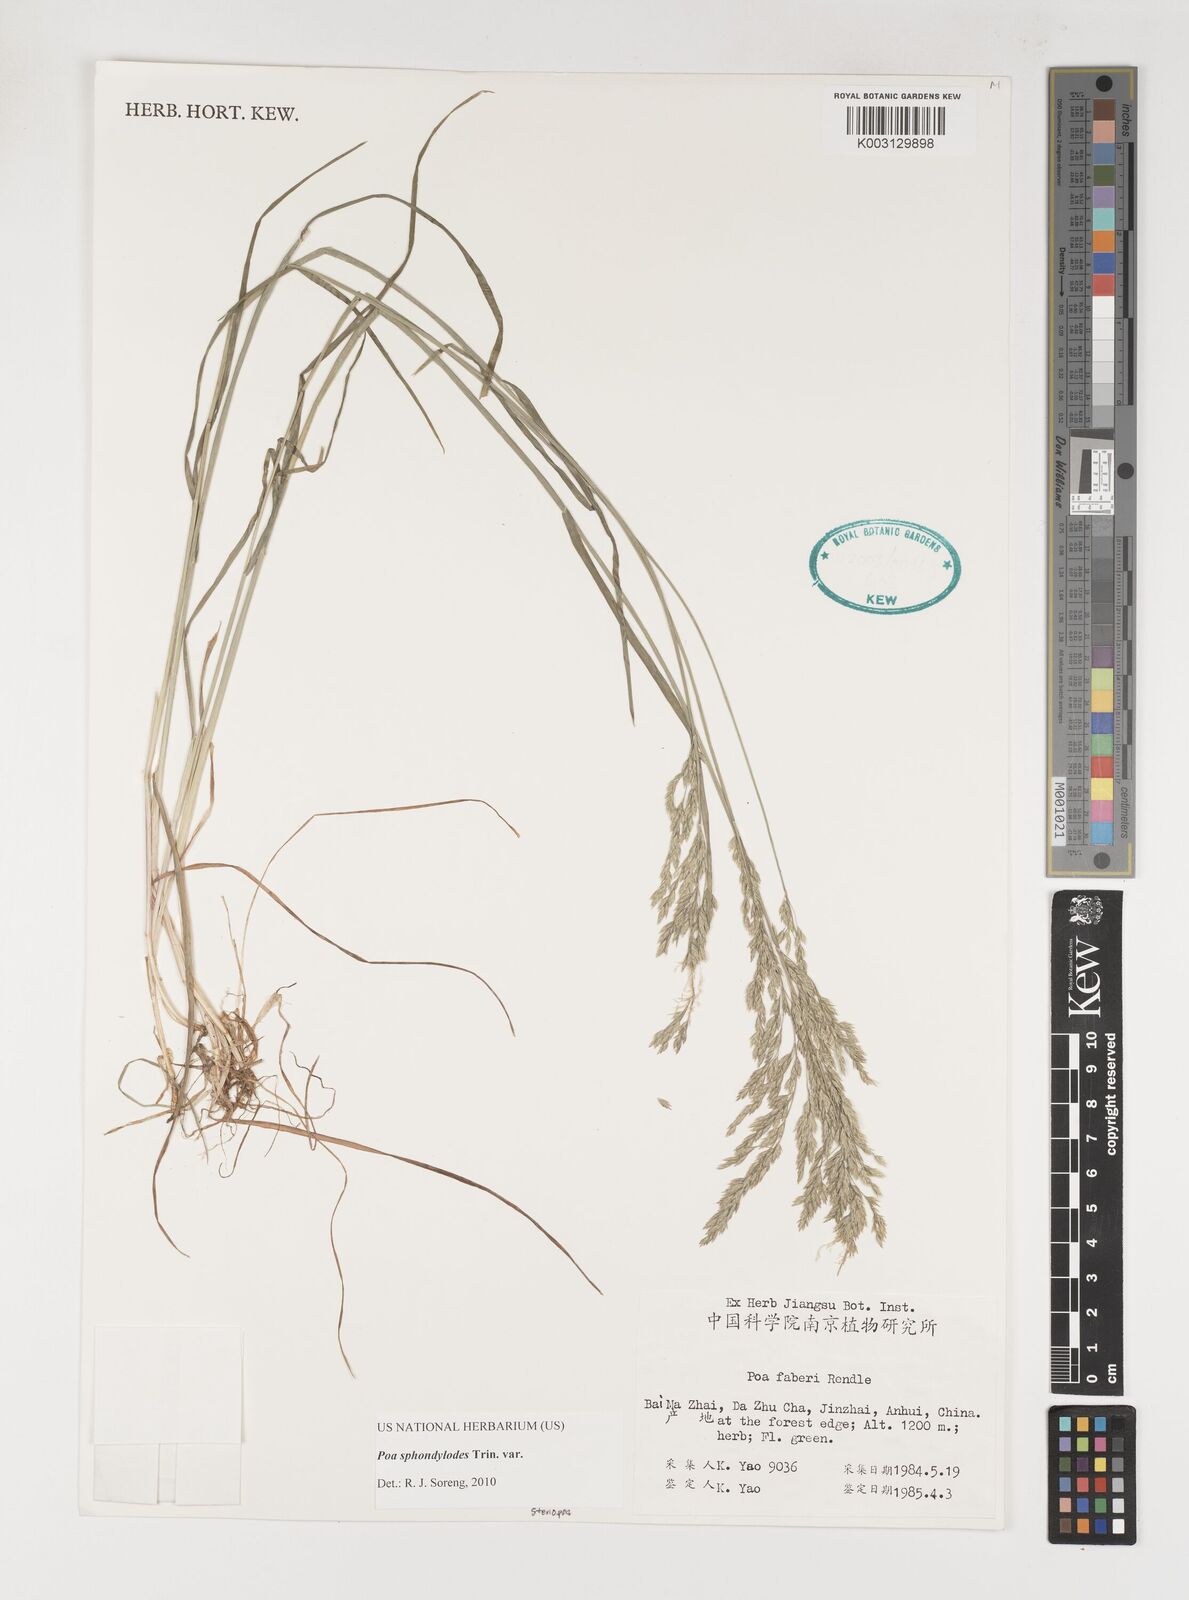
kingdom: Plantae
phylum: Tracheophyta
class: Liliopsida
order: Poales
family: Poaceae
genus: Poa
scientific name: Poa sphondylodes
